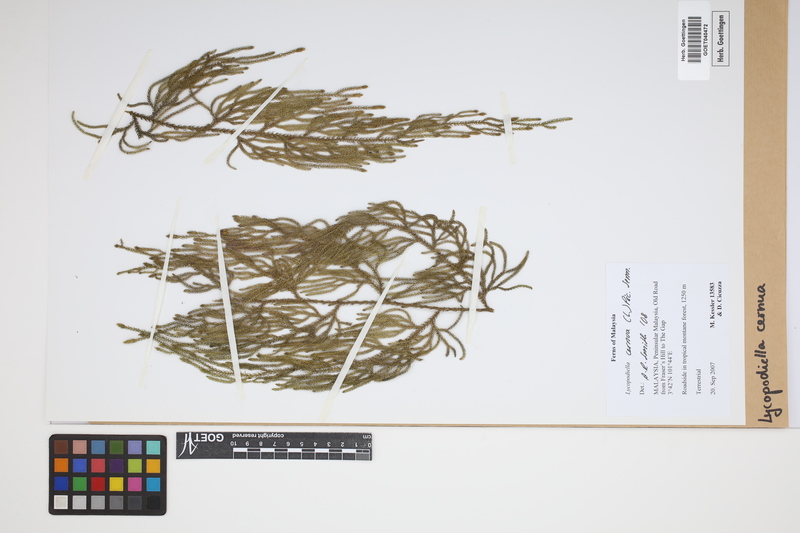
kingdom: Plantae
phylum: Tracheophyta
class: Lycopodiopsida
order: Lycopodiales
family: Lycopodiaceae
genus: Palhinhaea
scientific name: Palhinhaea cernua
